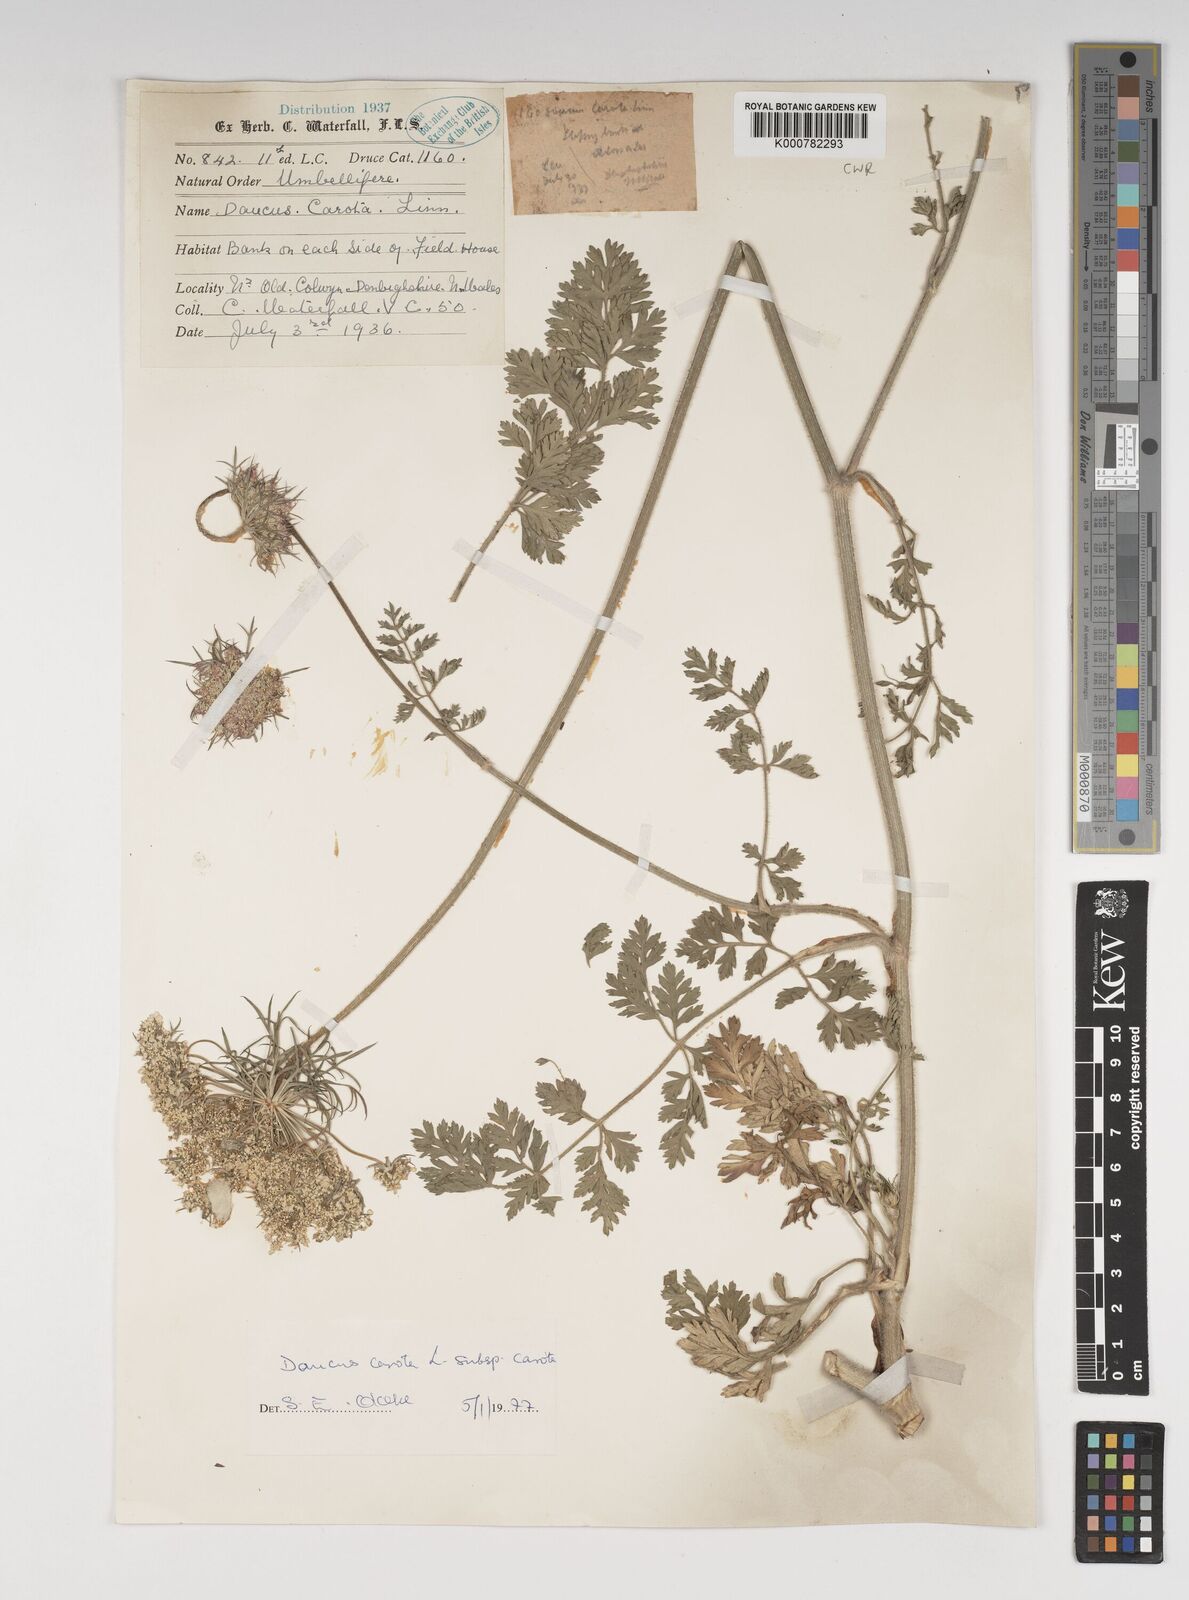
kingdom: Plantae
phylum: Tracheophyta
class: Magnoliopsida
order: Apiales
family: Apiaceae
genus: Daucus
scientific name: Daucus carota
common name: Wild carrot
